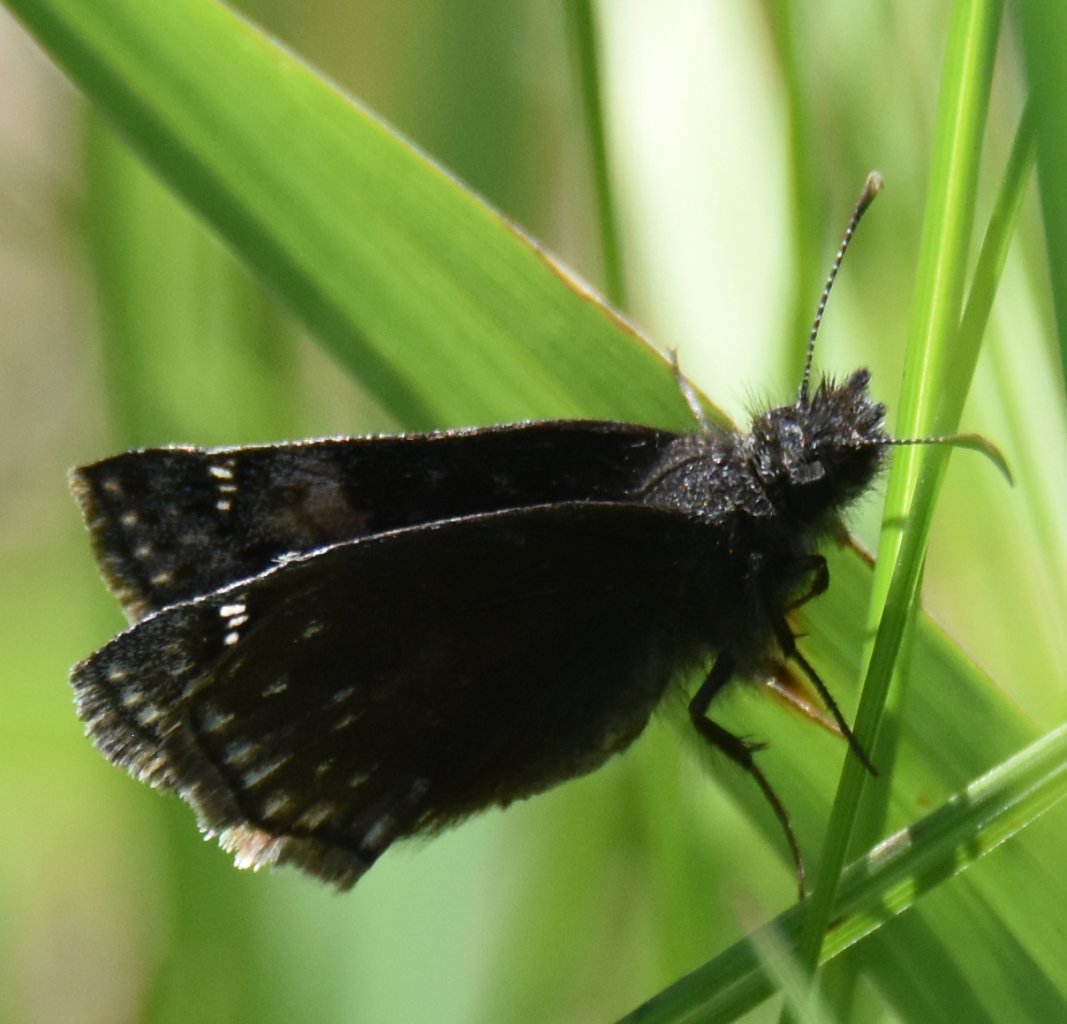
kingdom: Animalia
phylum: Arthropoda
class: Insecta
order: Lepidoptera
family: Hesperiidae
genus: Gesta
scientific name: Gesta
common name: Wild Indigo Duskywing
